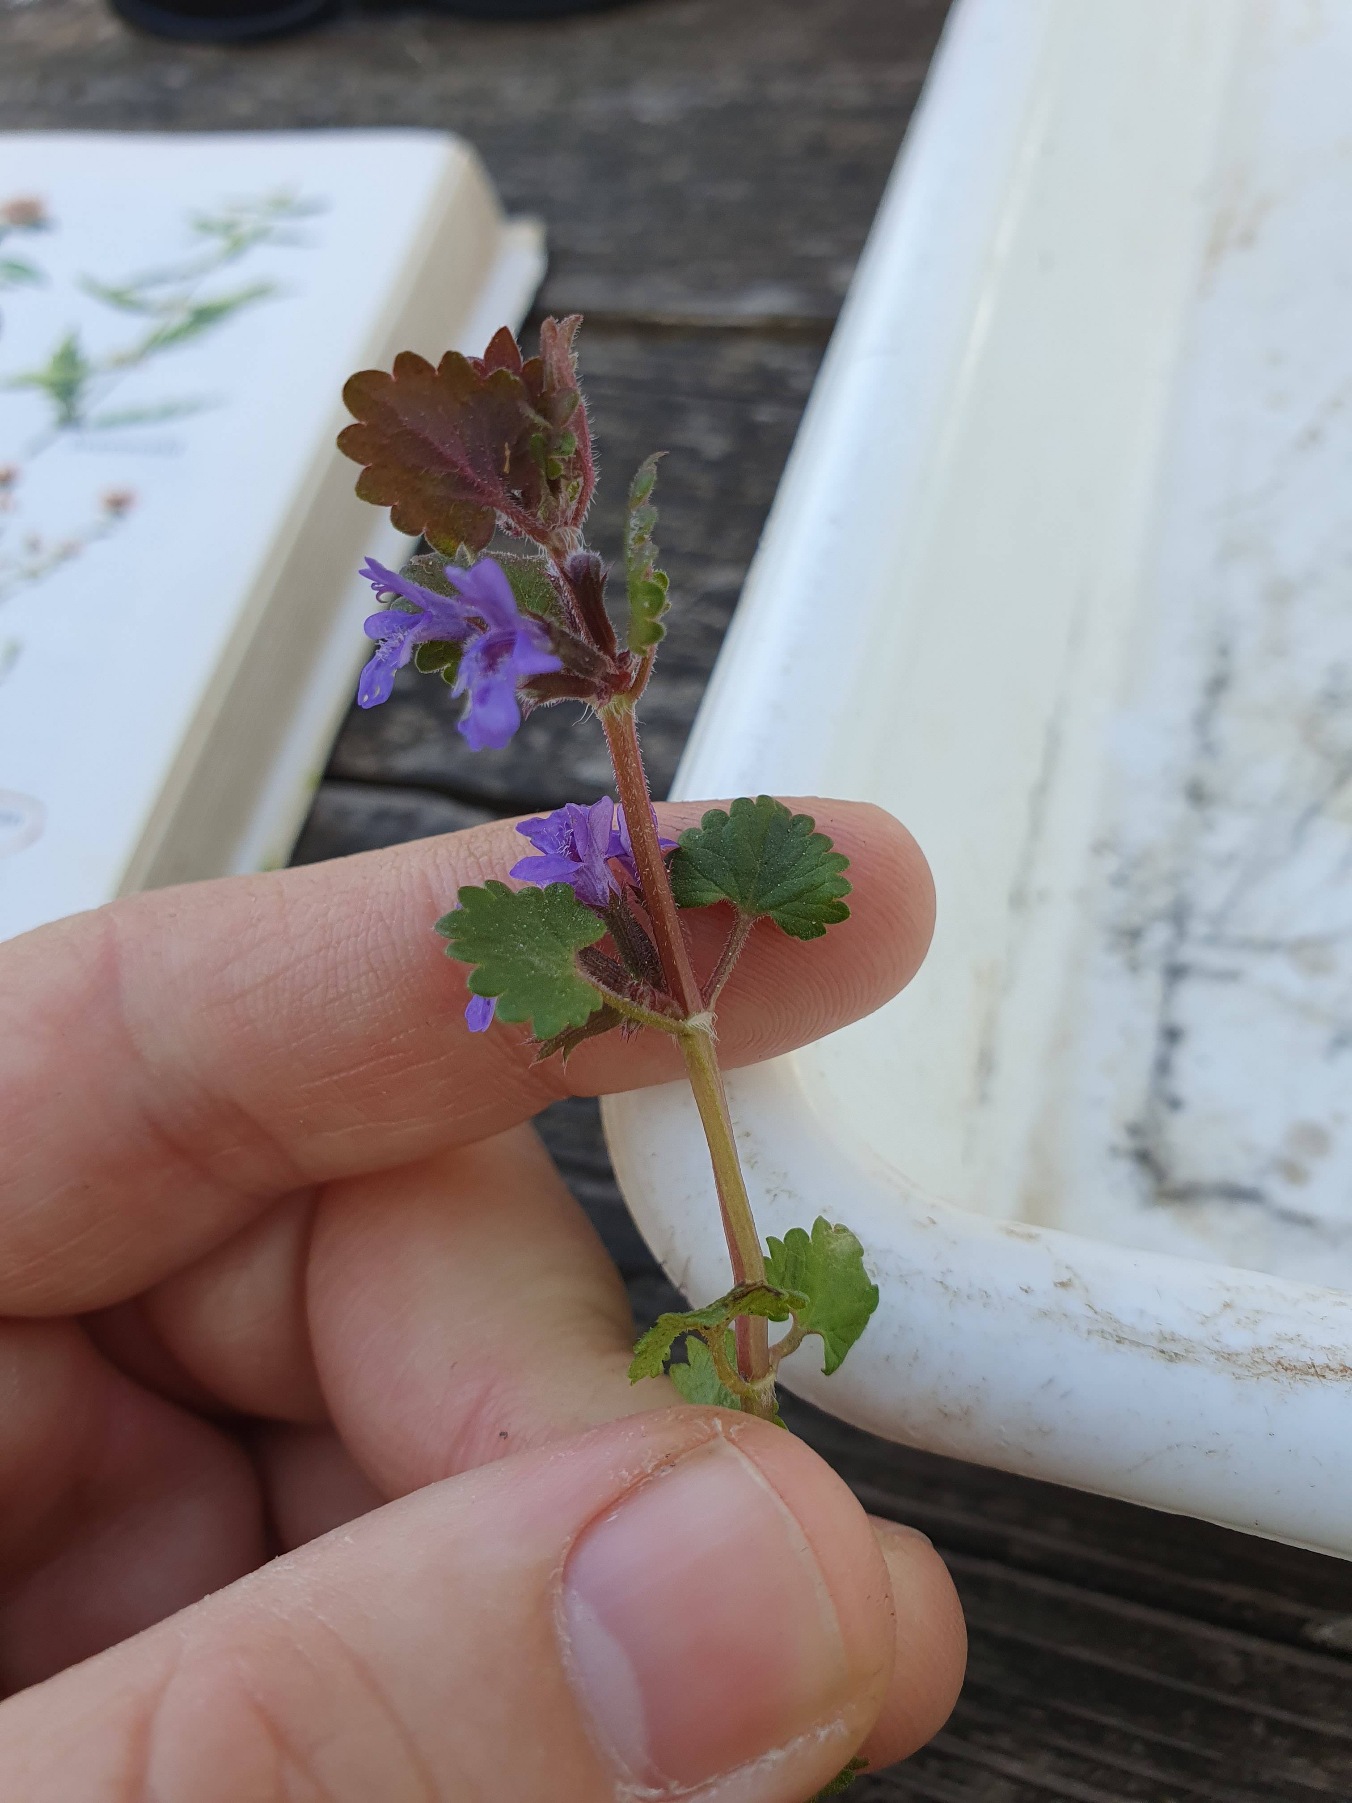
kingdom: Plantae
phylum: Tracheophyta
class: Magnoliopsida
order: Lamiales
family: Lamiaceae
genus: Glechoma
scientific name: Glechoma hederacea
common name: Korsknap
